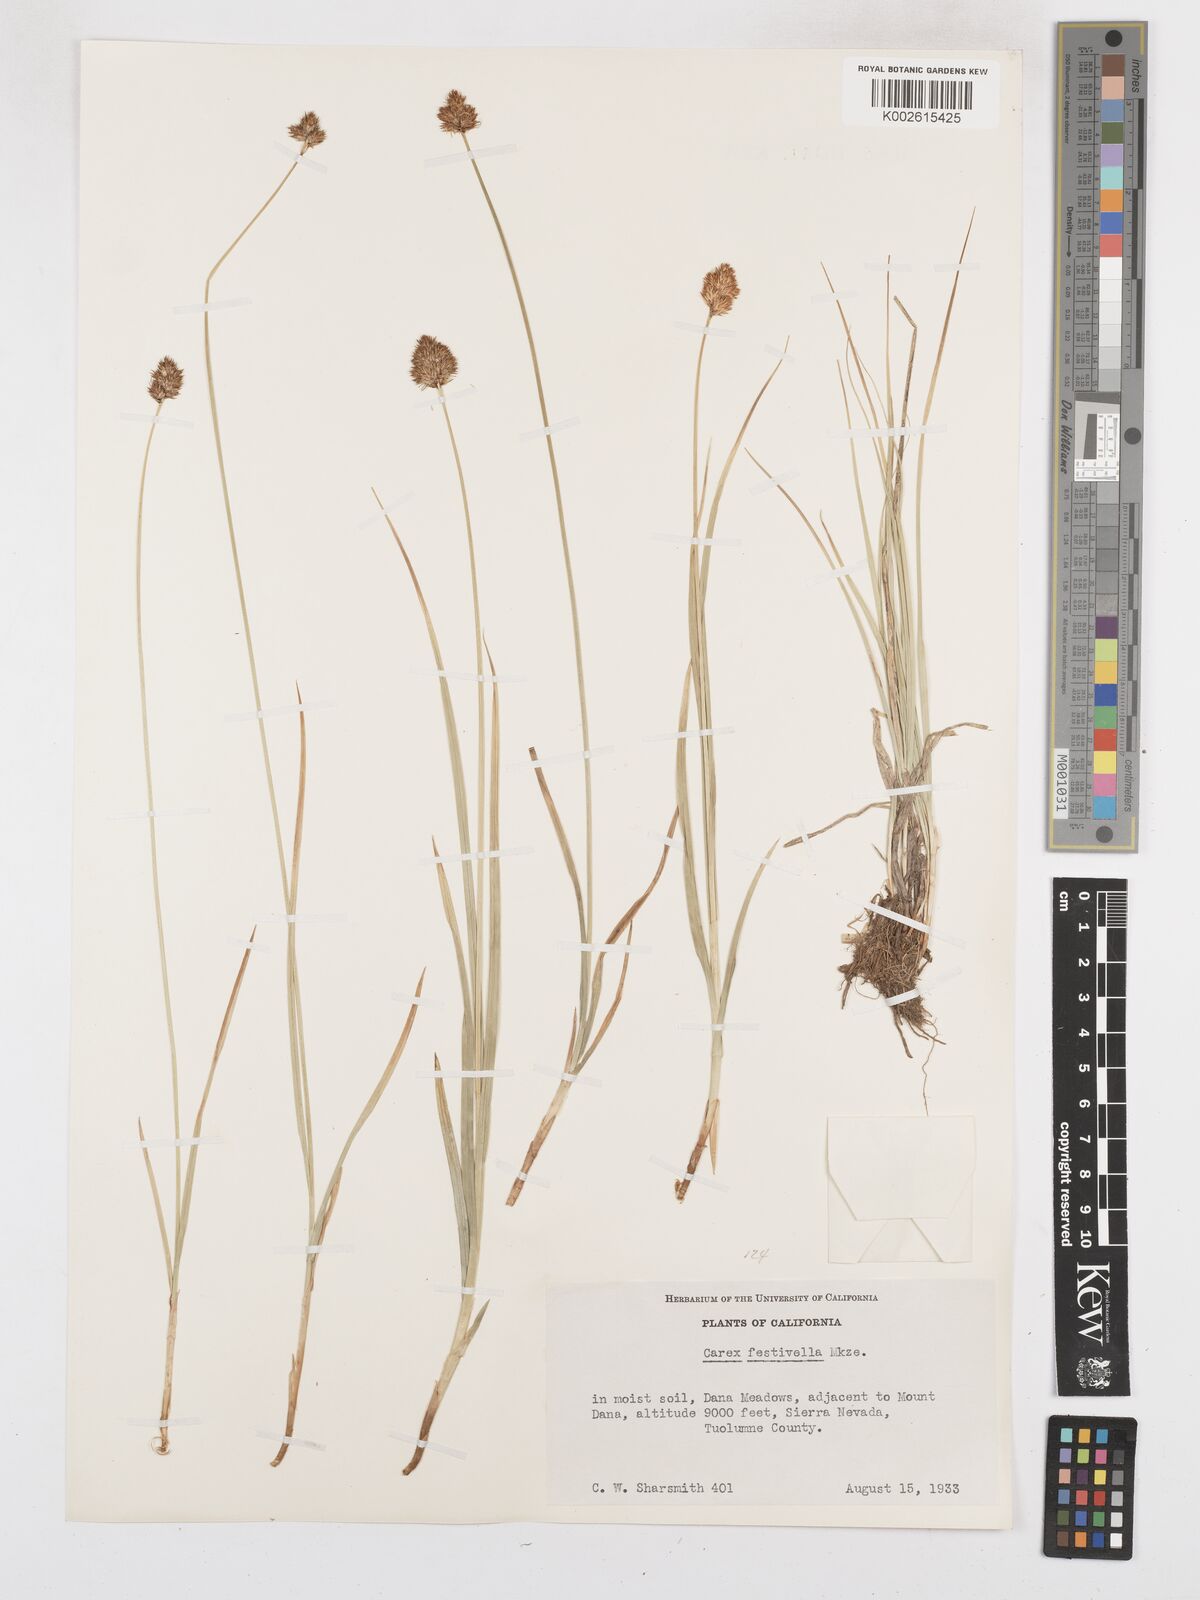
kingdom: Plantae
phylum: Tracheophyta
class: Liliopsida
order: Poales
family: Cyperaceae
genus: Carex
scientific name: Carex microptera
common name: Oval-headed sedge
